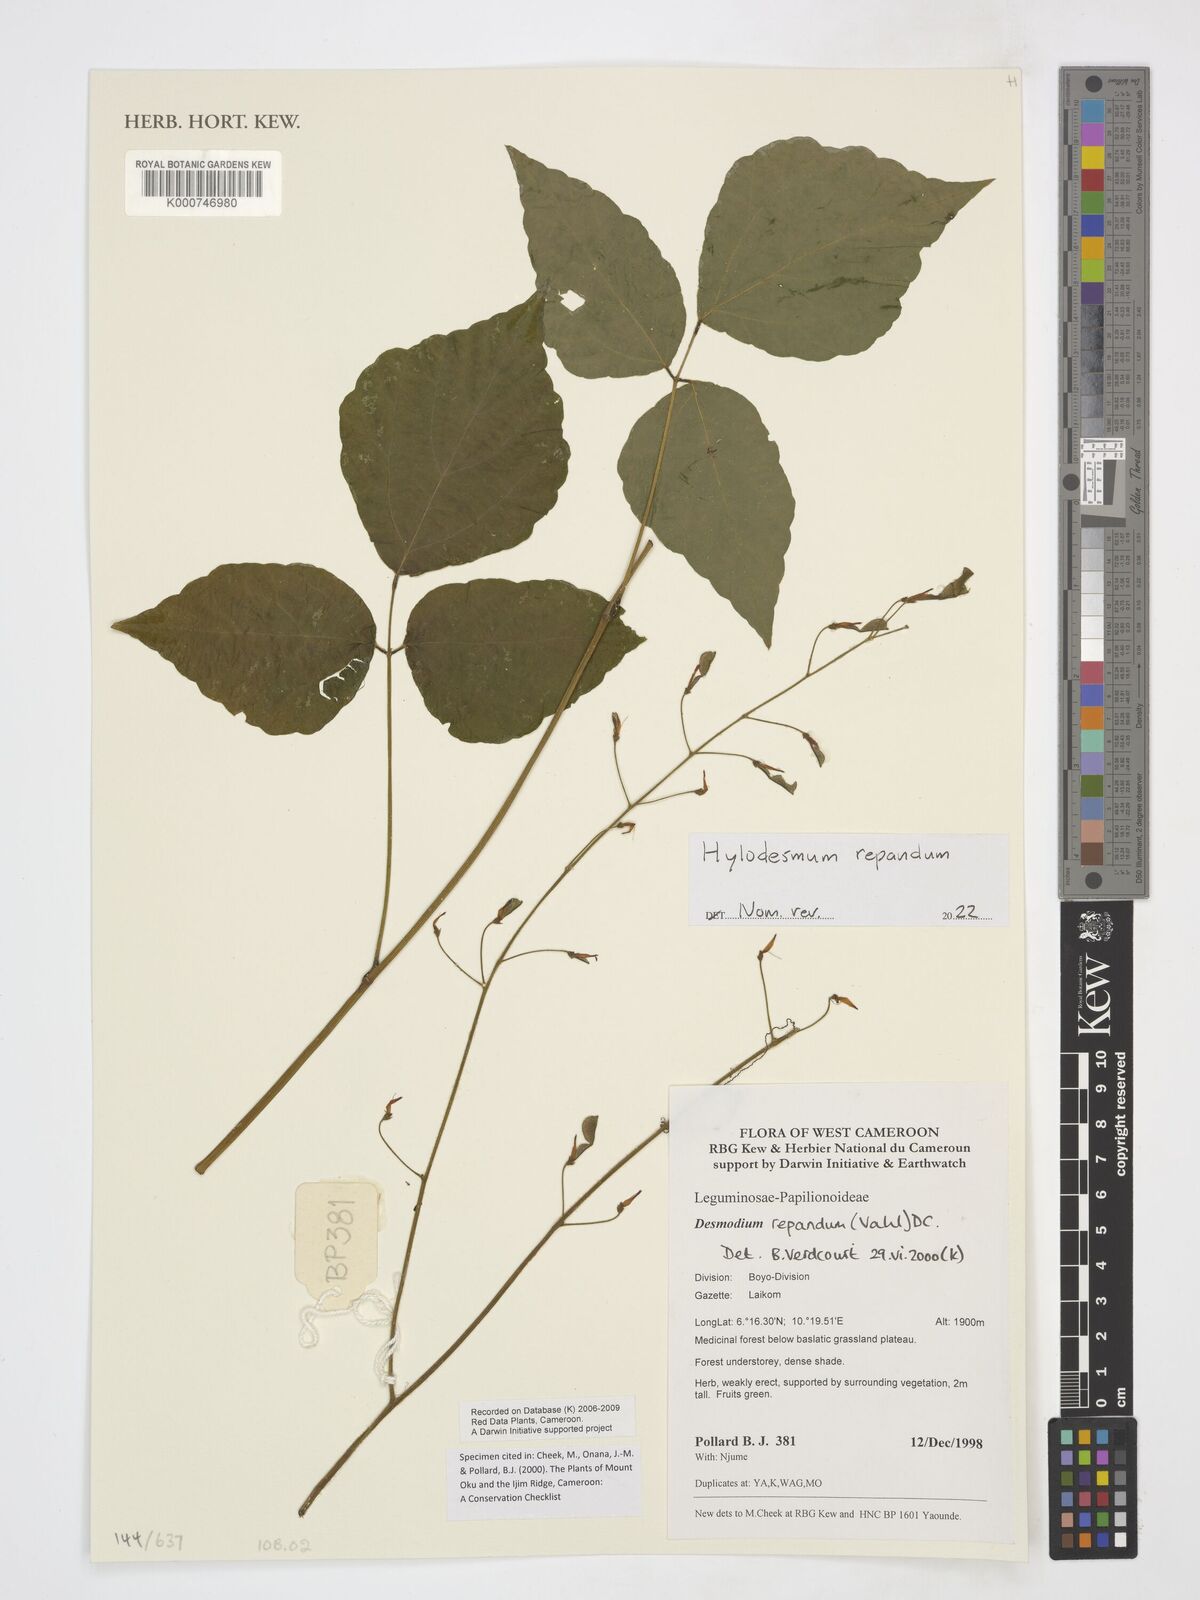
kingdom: Plantae
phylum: Tracheophyta
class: Magnoliopsida
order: Fabales
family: Fabaceae
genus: Desmodium
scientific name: Desmodium
